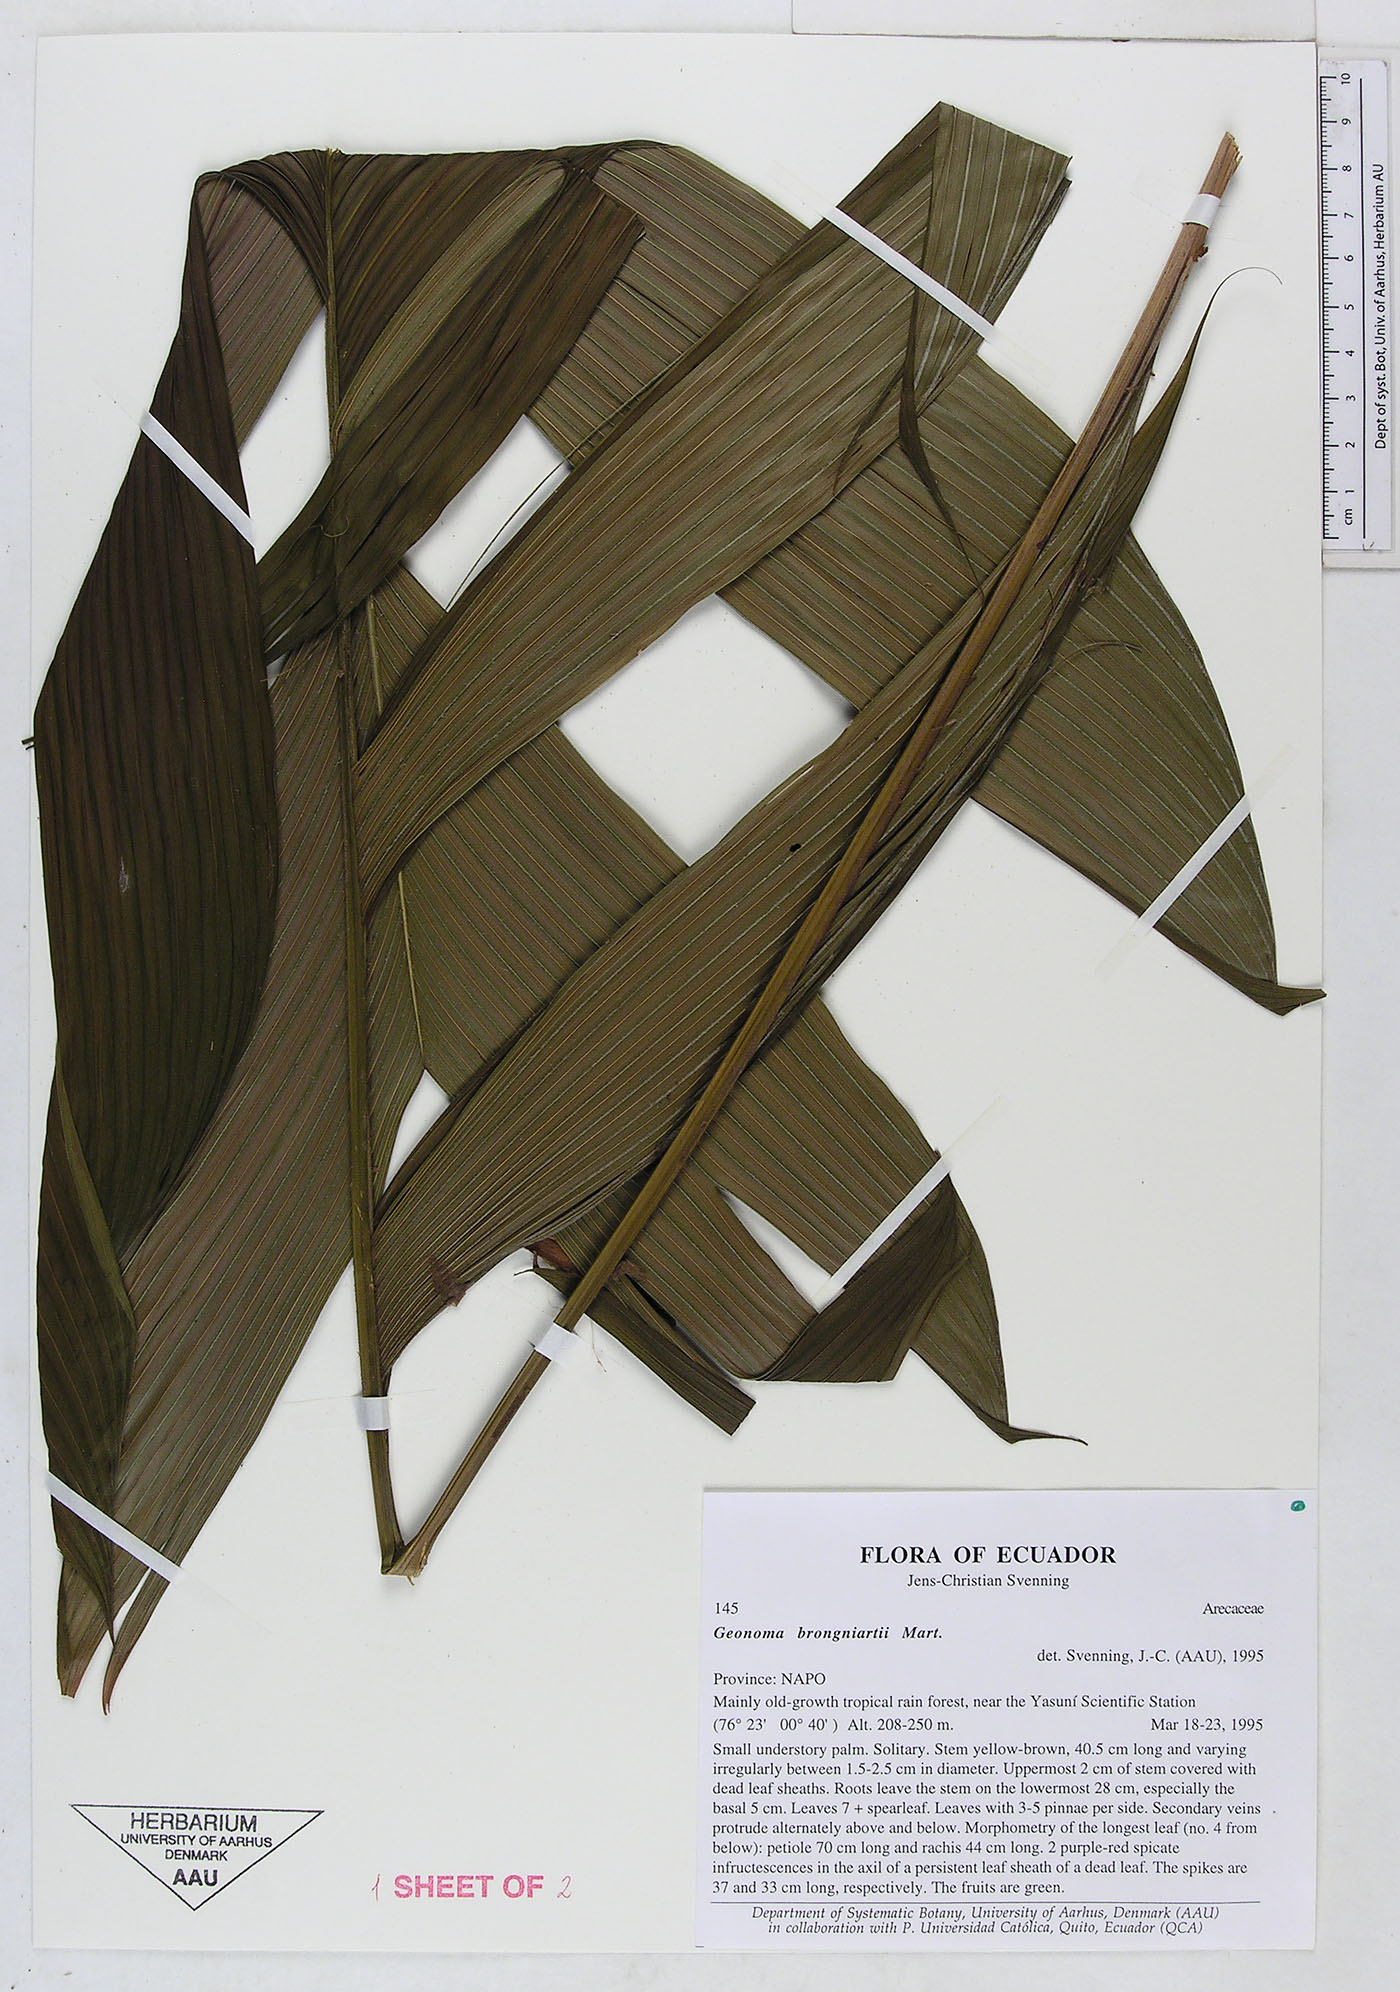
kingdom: Plantae
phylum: Tracheophyta
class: Liliopsida
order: Arecales
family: Arecaceae
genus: Geonoma
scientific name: Geonoma brongniartii
